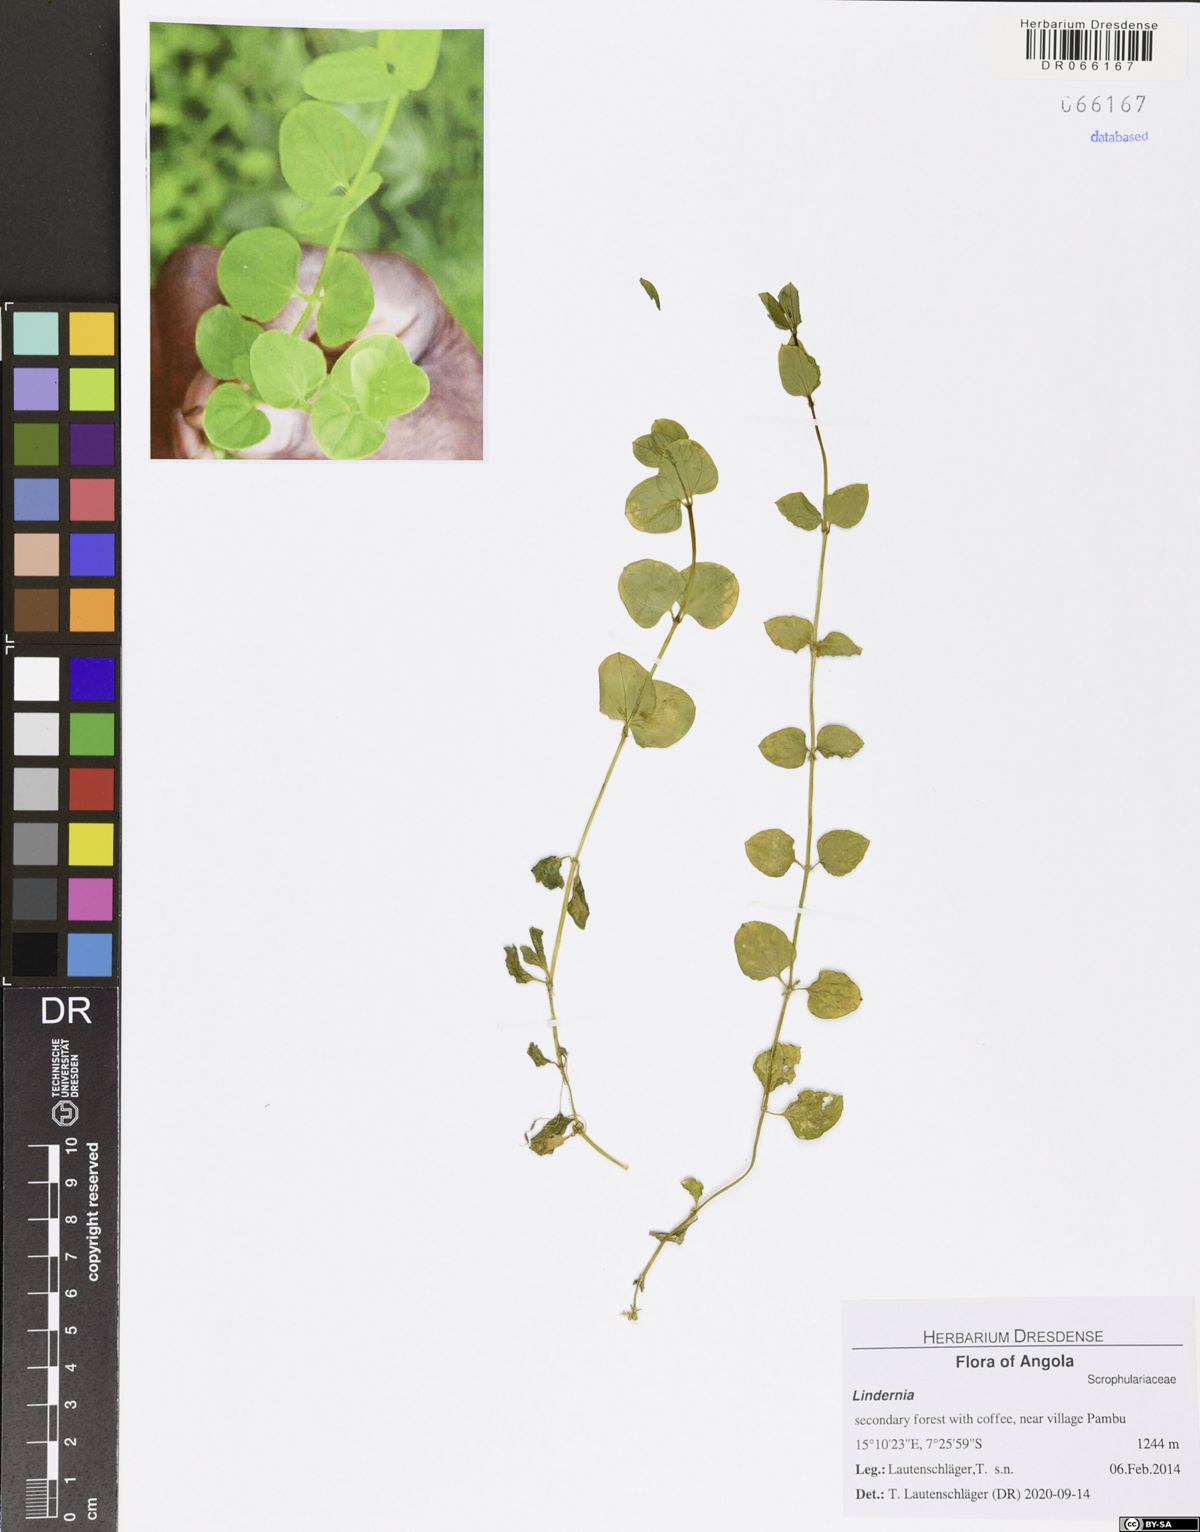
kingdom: Plantae
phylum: Tracheophyta
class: Magnoliopsida
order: Lamiales
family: Linderniaceae
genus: Lindernia
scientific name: Lindernia
